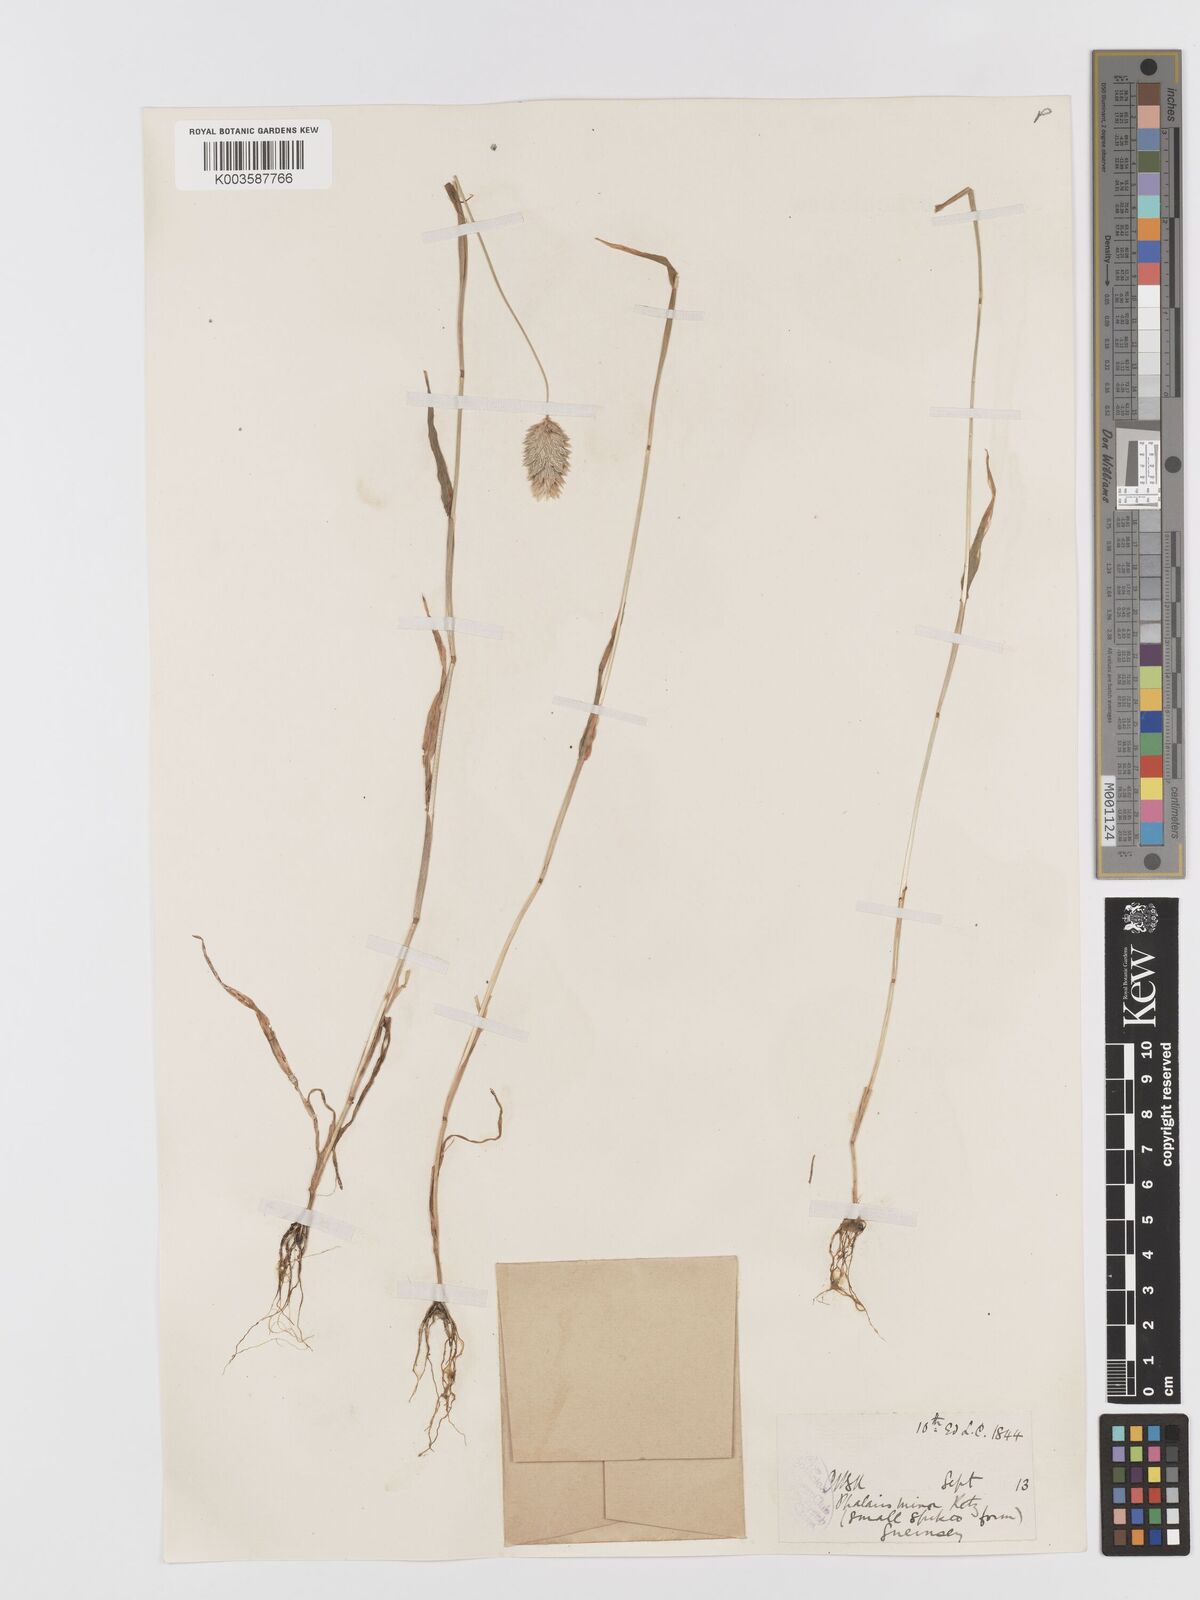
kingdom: Plantae
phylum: Tracheophyta
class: Liliopsida
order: Poales
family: Poaceae
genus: Phalaris
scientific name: Phalaris minor
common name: Littleseed canarygrass
